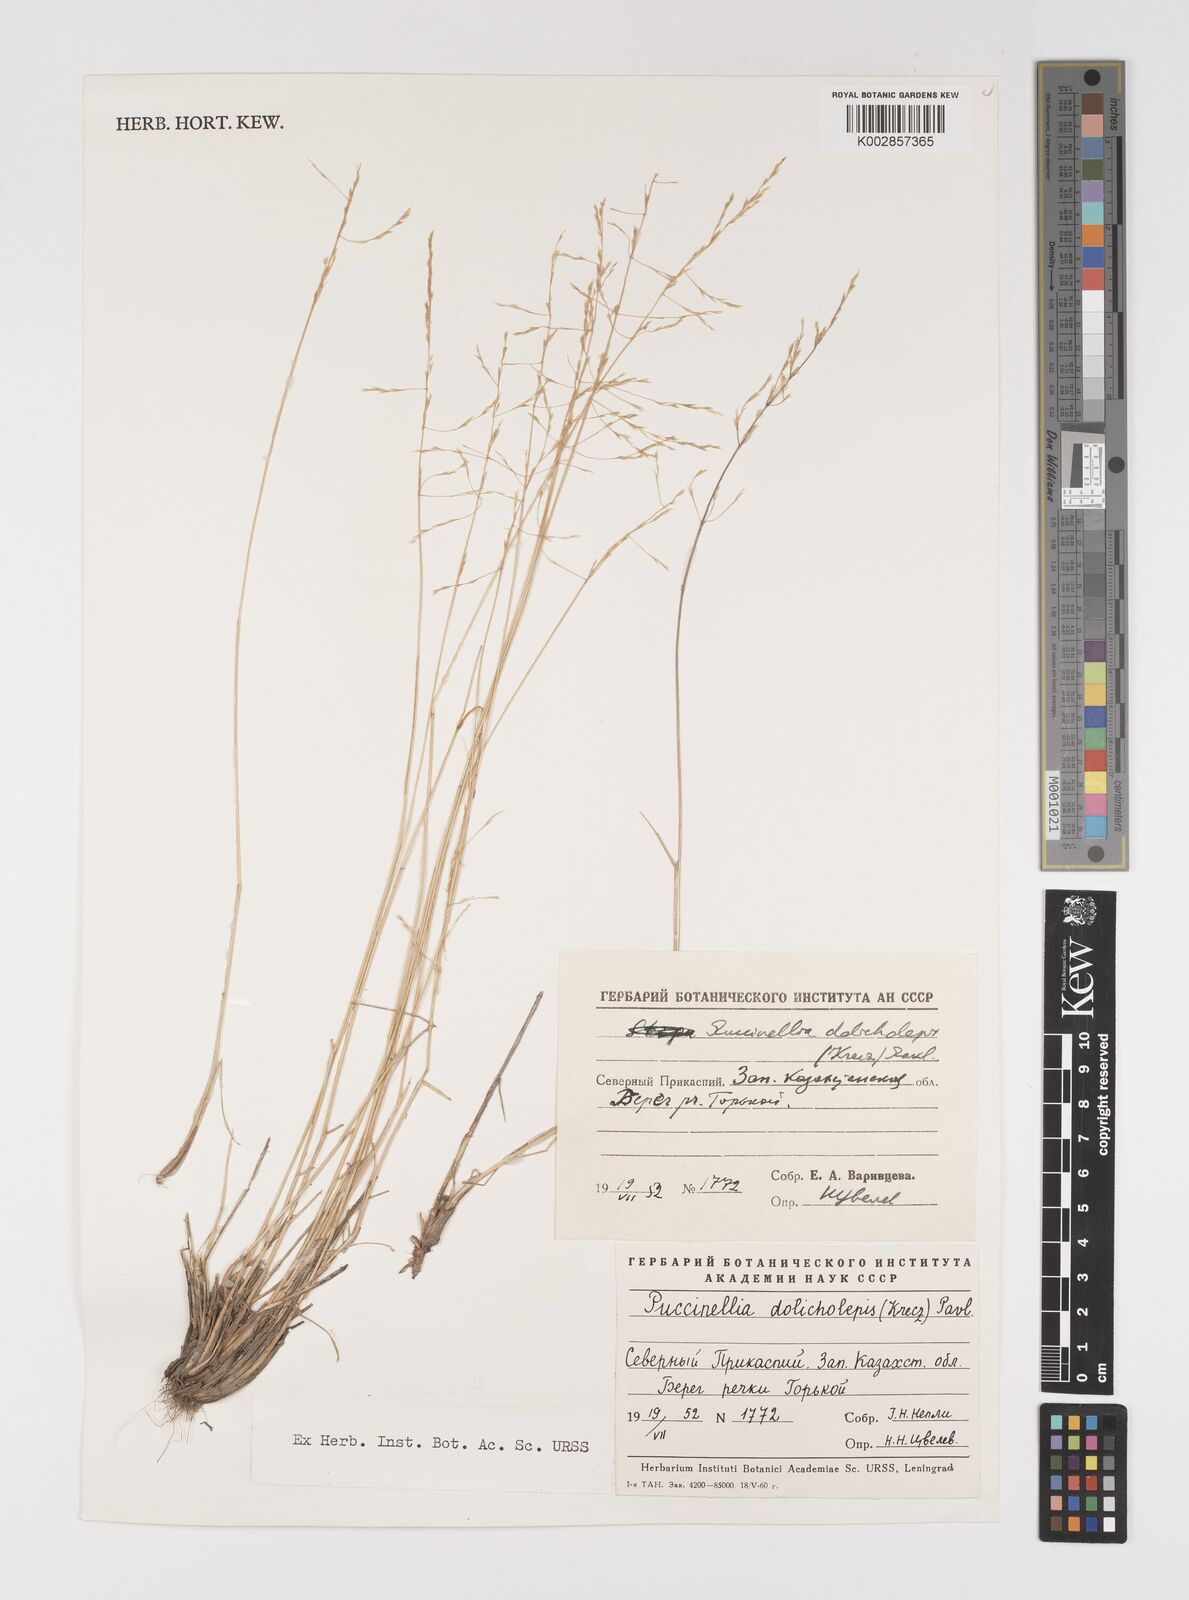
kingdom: Plantae
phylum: Tracheophyta
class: Liliopsida
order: Poales
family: Poaceae
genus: Puccinellia
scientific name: Puccinellia dolicholepis
